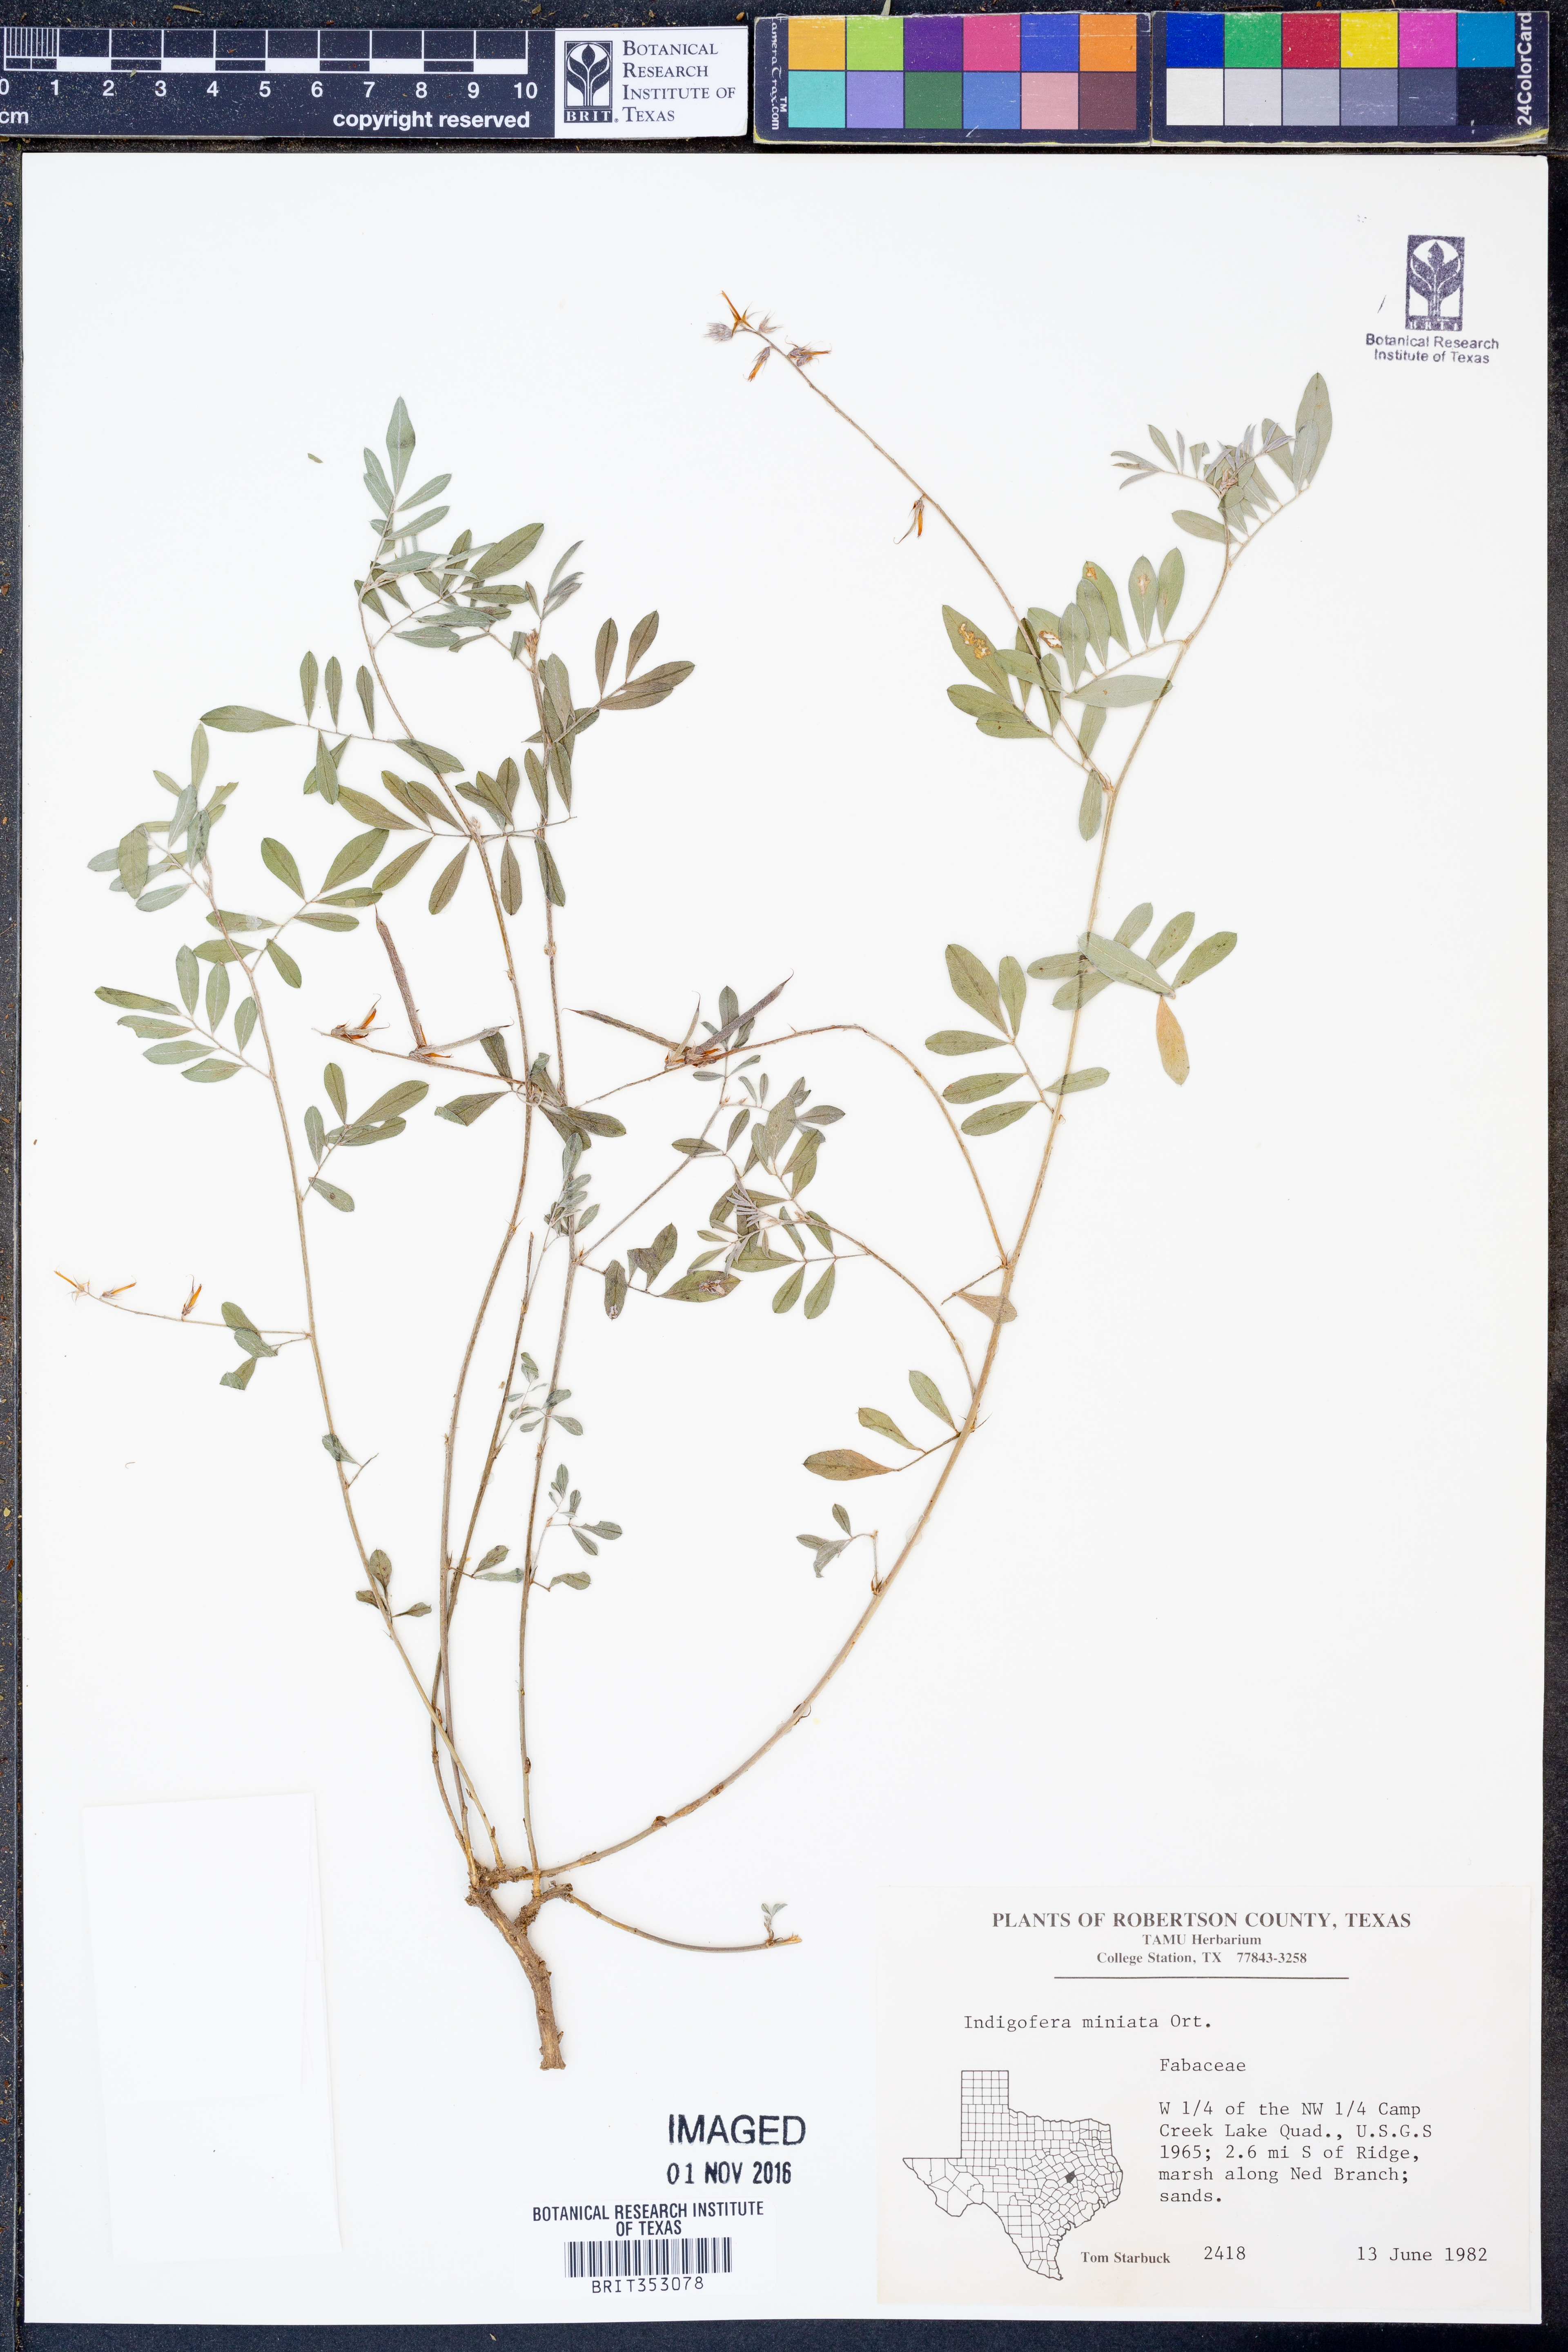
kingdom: Plantae
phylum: Tracheophyta
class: Magnoliopsida
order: Fabales
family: Fabaceae
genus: Indigofera
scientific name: Indigofera miniata
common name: Coast indigo
